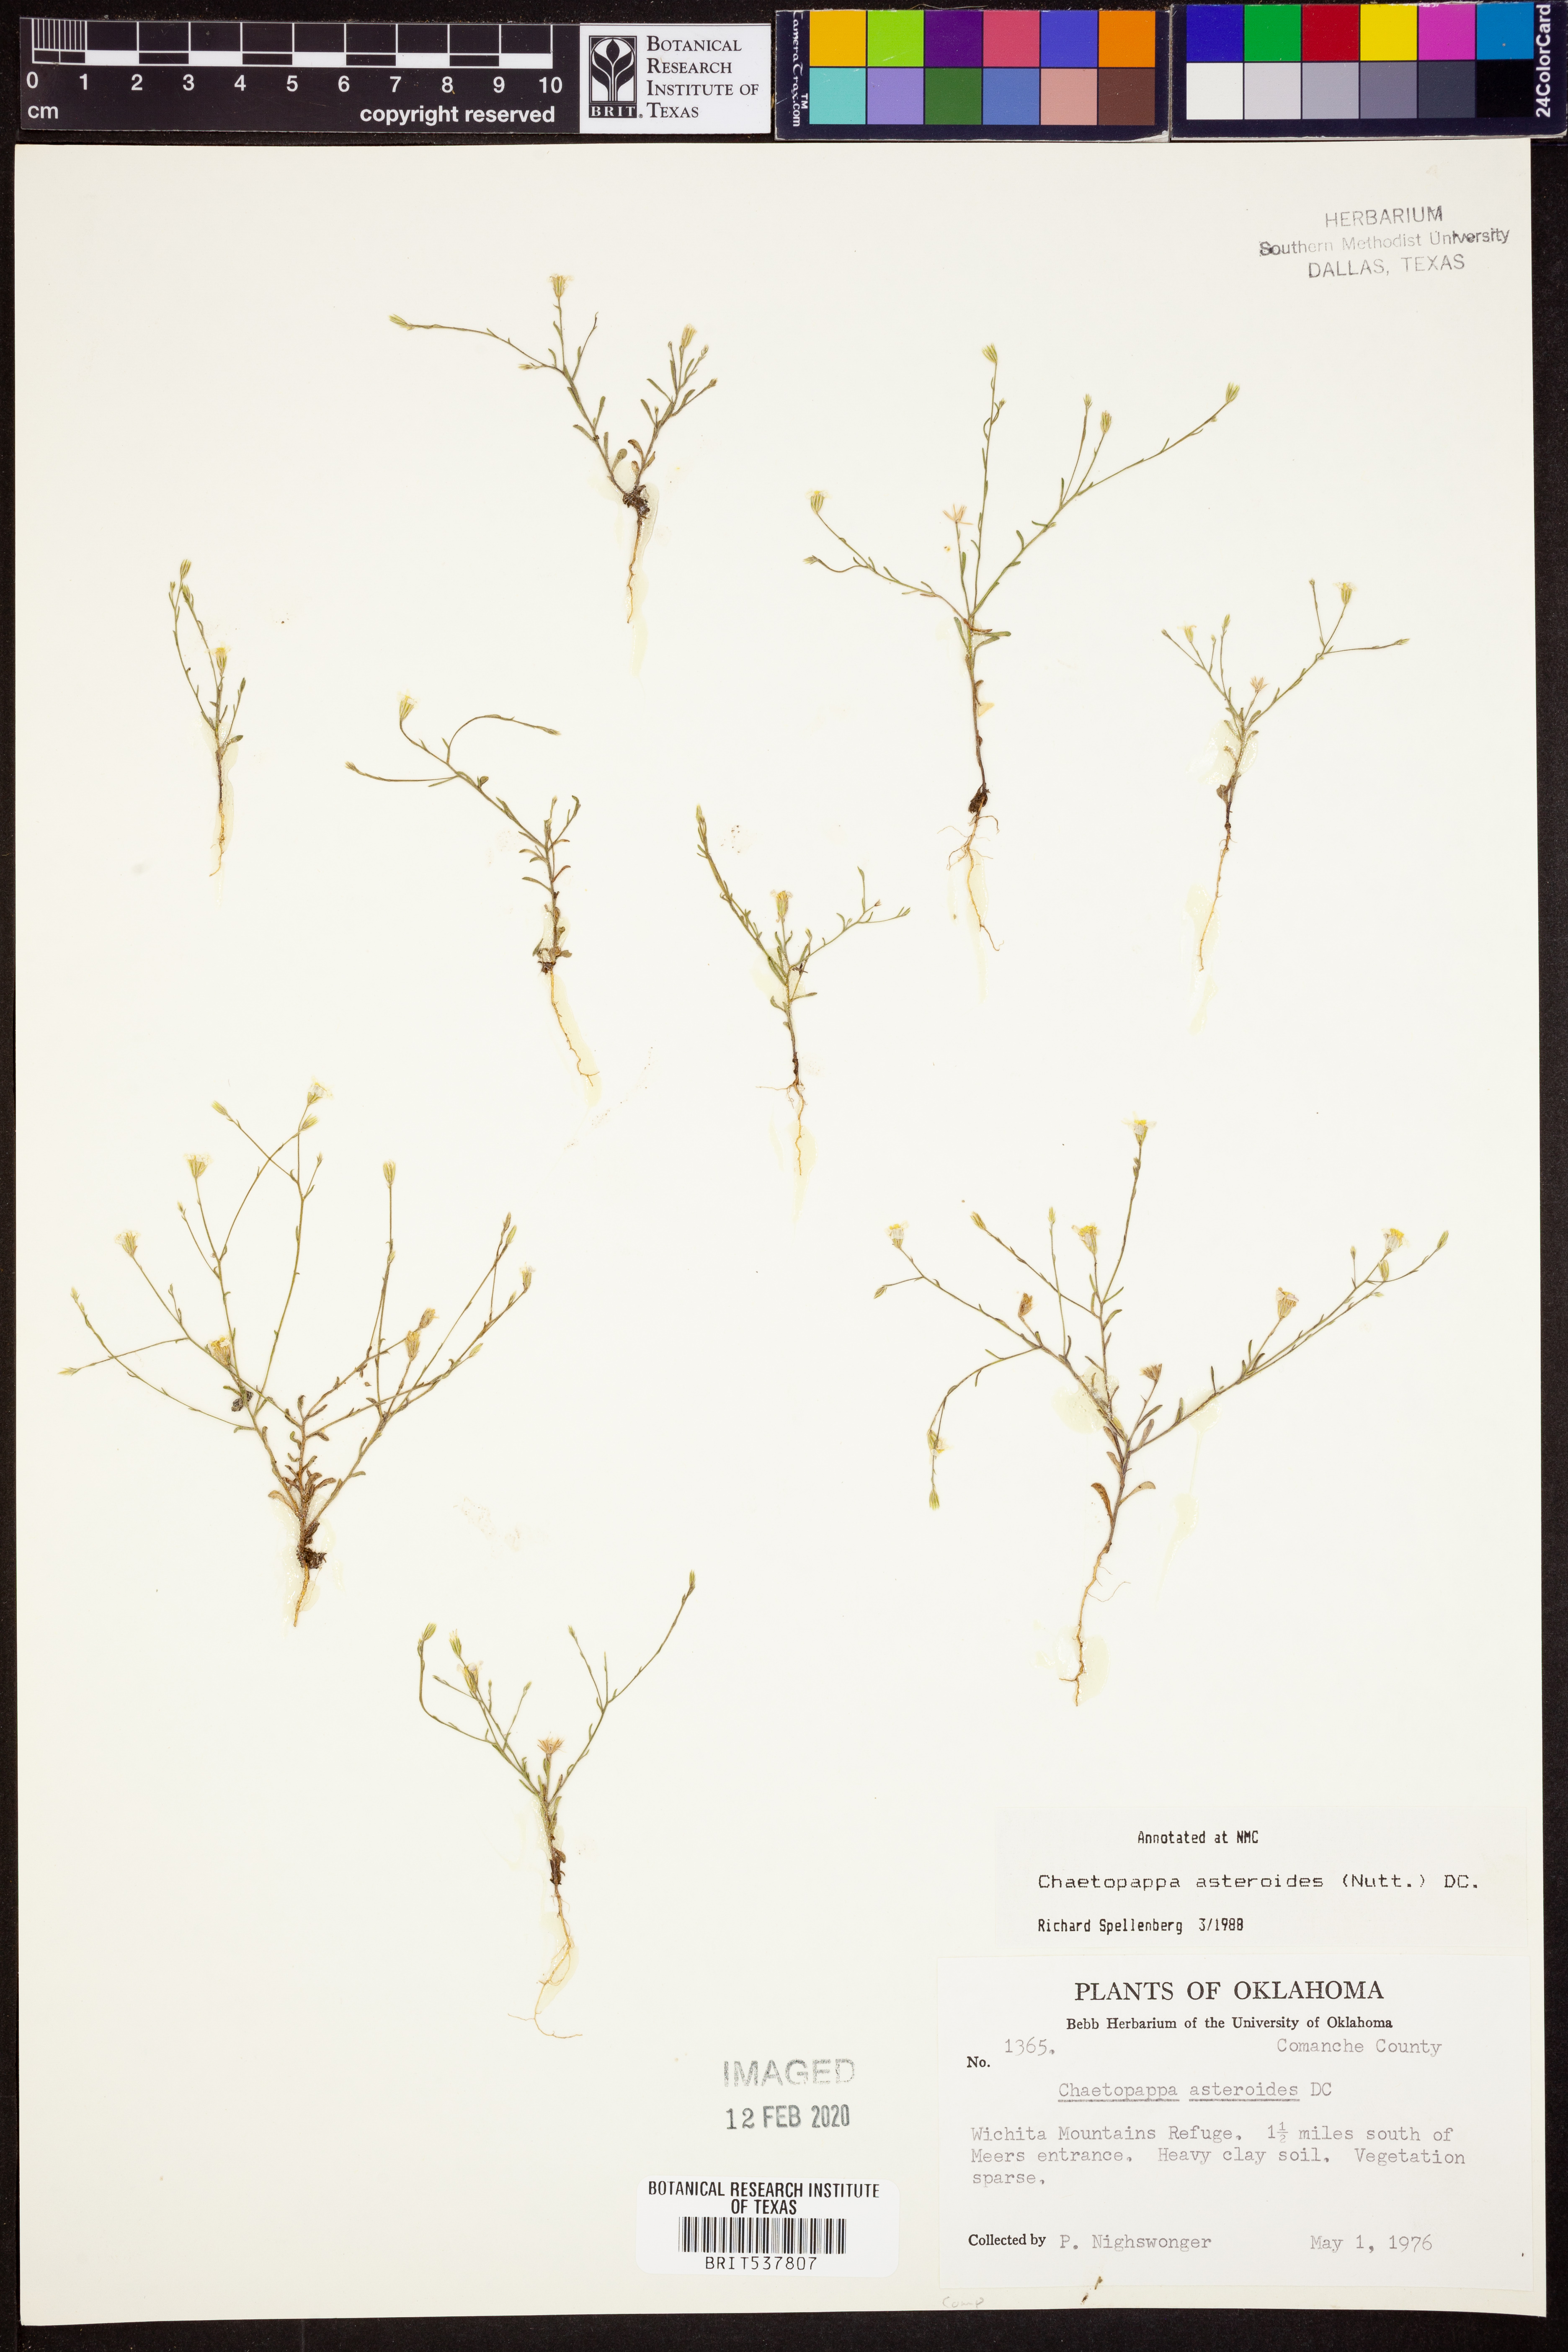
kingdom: Plantae
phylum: Tracheophyta
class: Magnoliopsida
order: Asterales
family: Asteraceae
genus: Chaetopappa
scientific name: Chaetopappa asteroides
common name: Tiny lazy daisy
